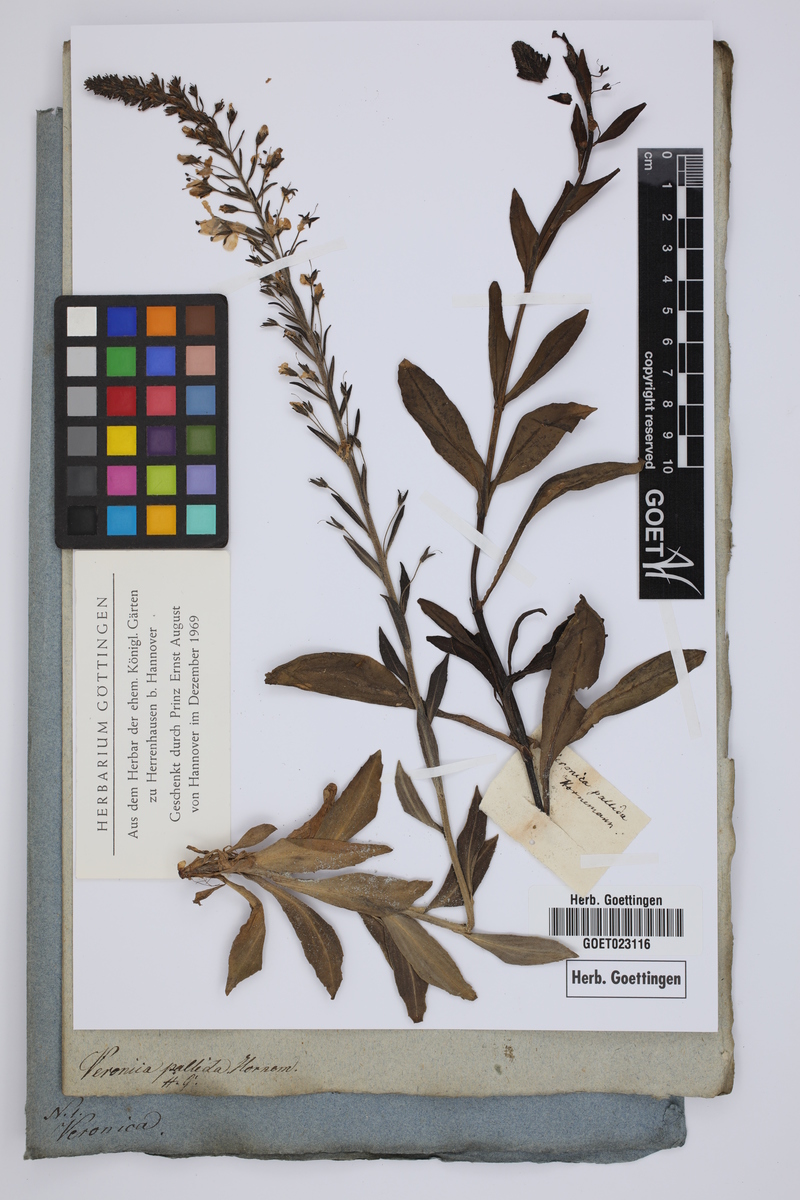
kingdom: Plantae
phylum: Tracheophyta
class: Magnoliopsida
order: Lamiales
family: Plantaginaceae
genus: Veronica
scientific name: Veronica gentianoides
